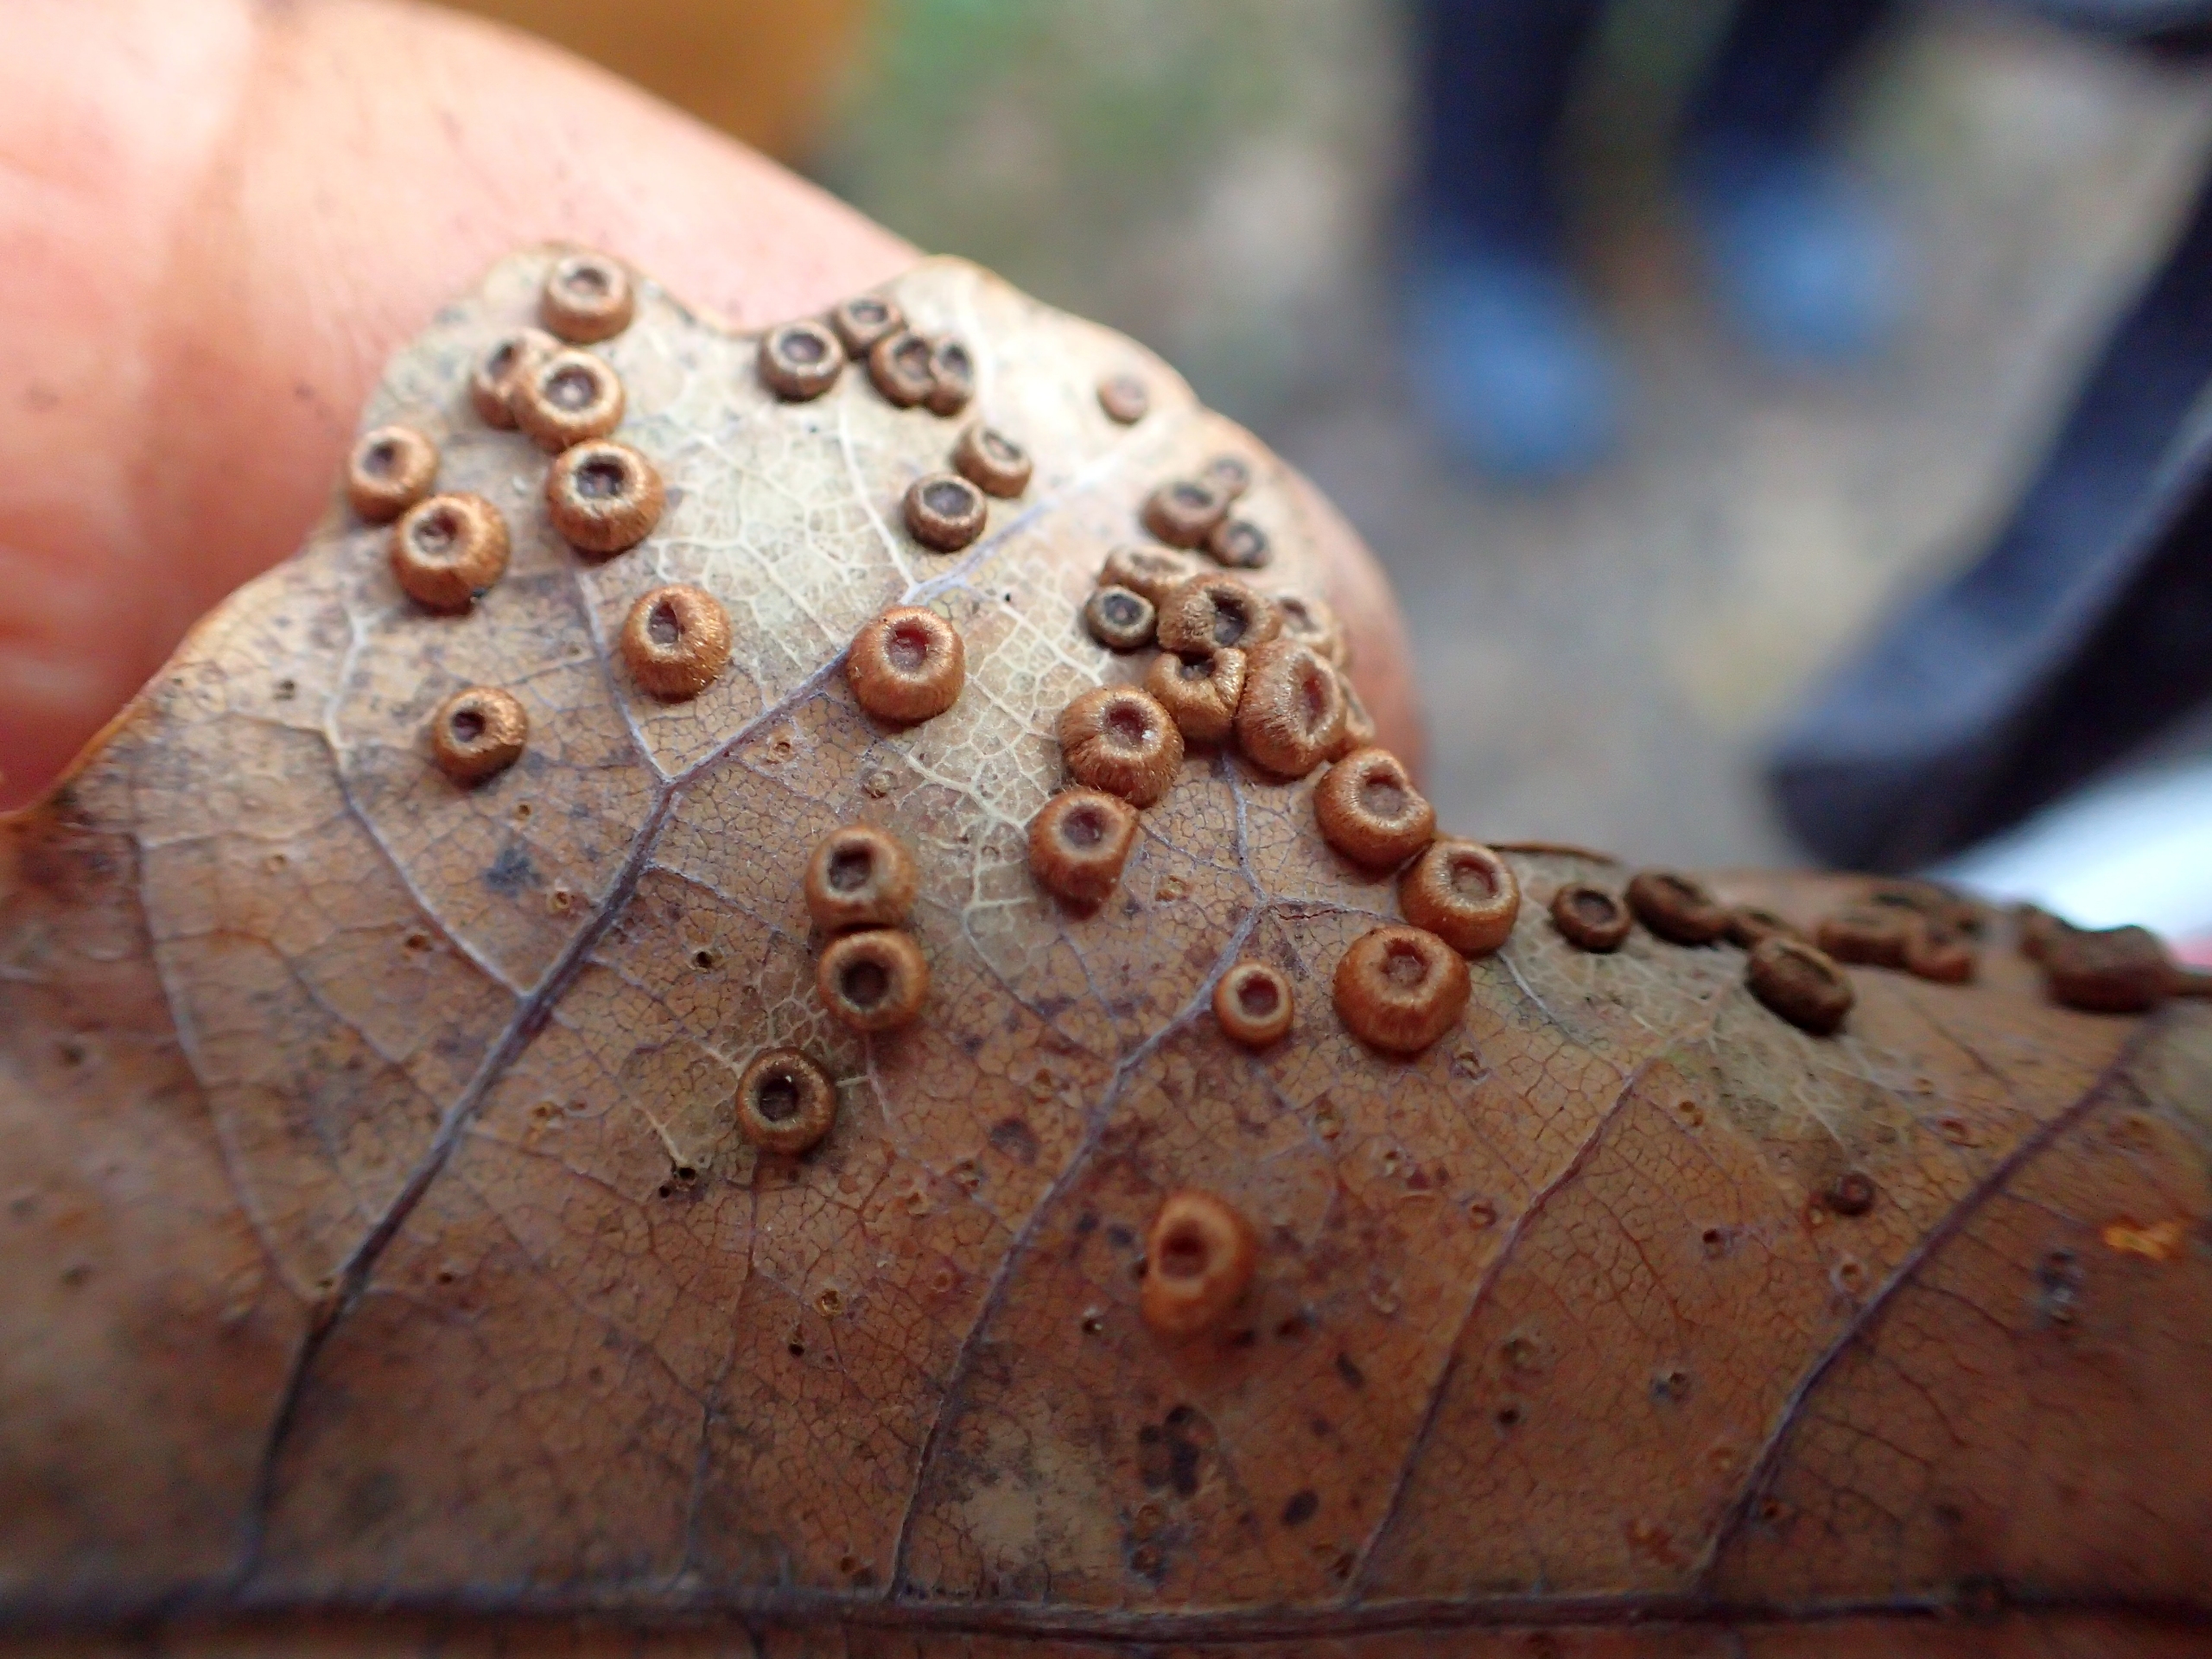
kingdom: Animalia
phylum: Arthropoda
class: Insecta
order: Hymenoptera
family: Cynipidae
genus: Neuroterus
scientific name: Neuroterus numismalis
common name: Knapgalhveps
